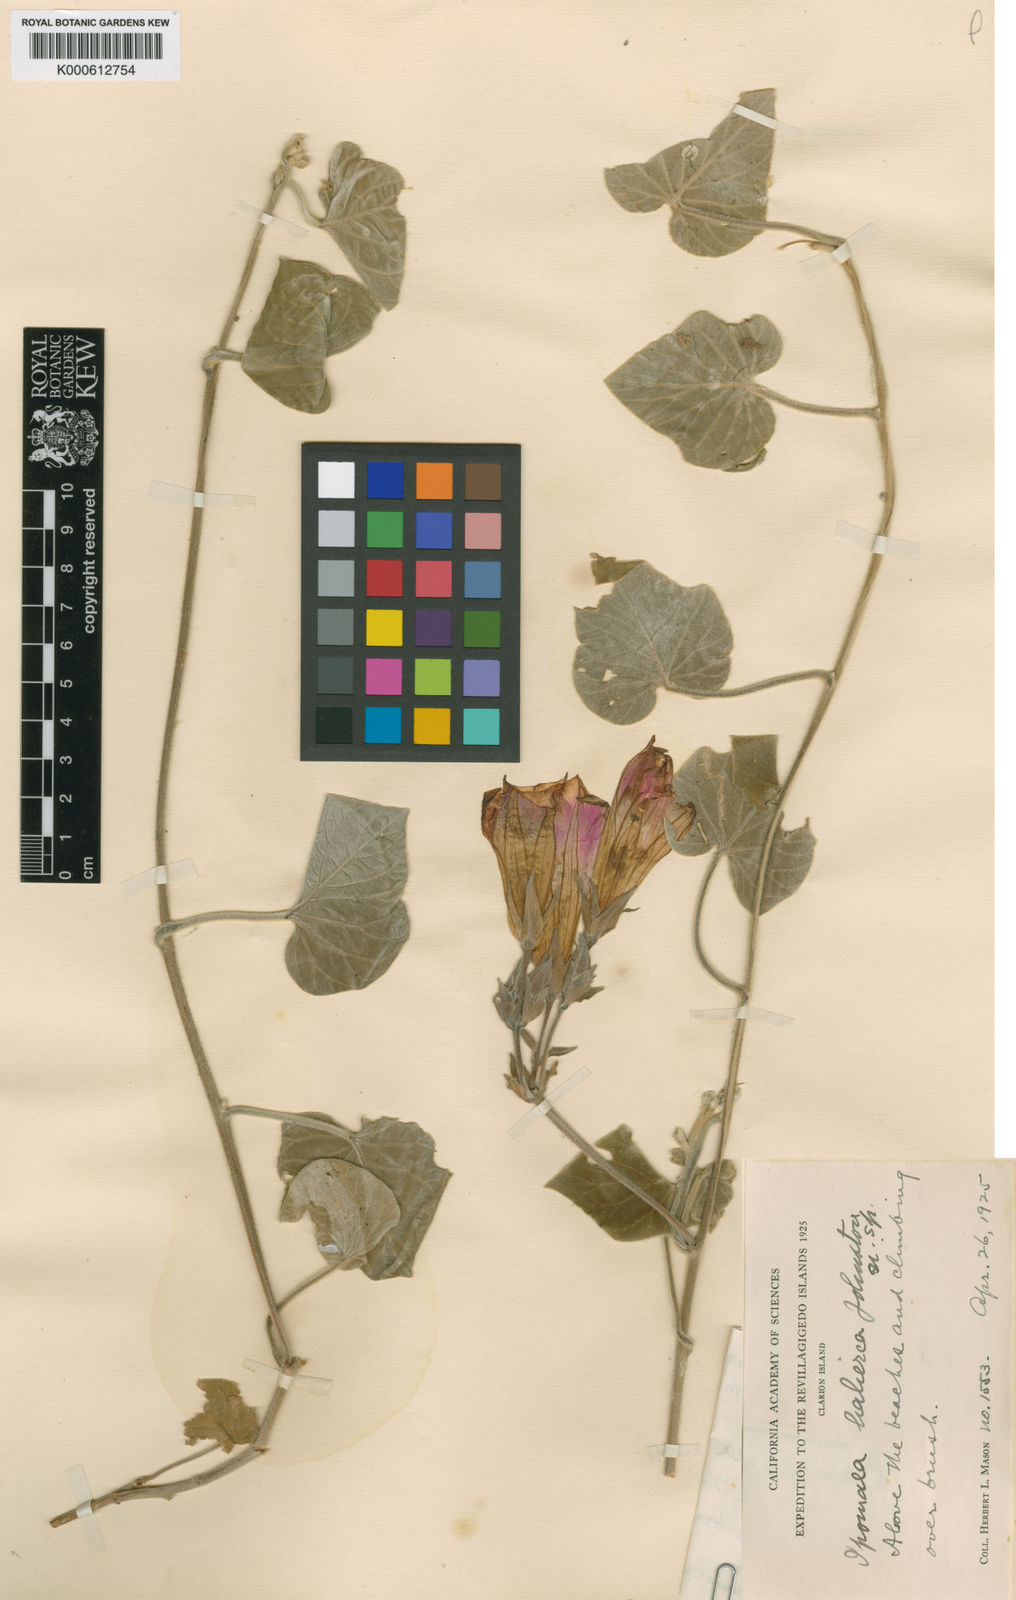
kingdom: Plantae
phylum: Tracheophyta
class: Magnoliopsida
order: Solanales
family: Convolvulaceae
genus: Ipomoea
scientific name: Ipomoea indica
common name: Blue dawnflower
